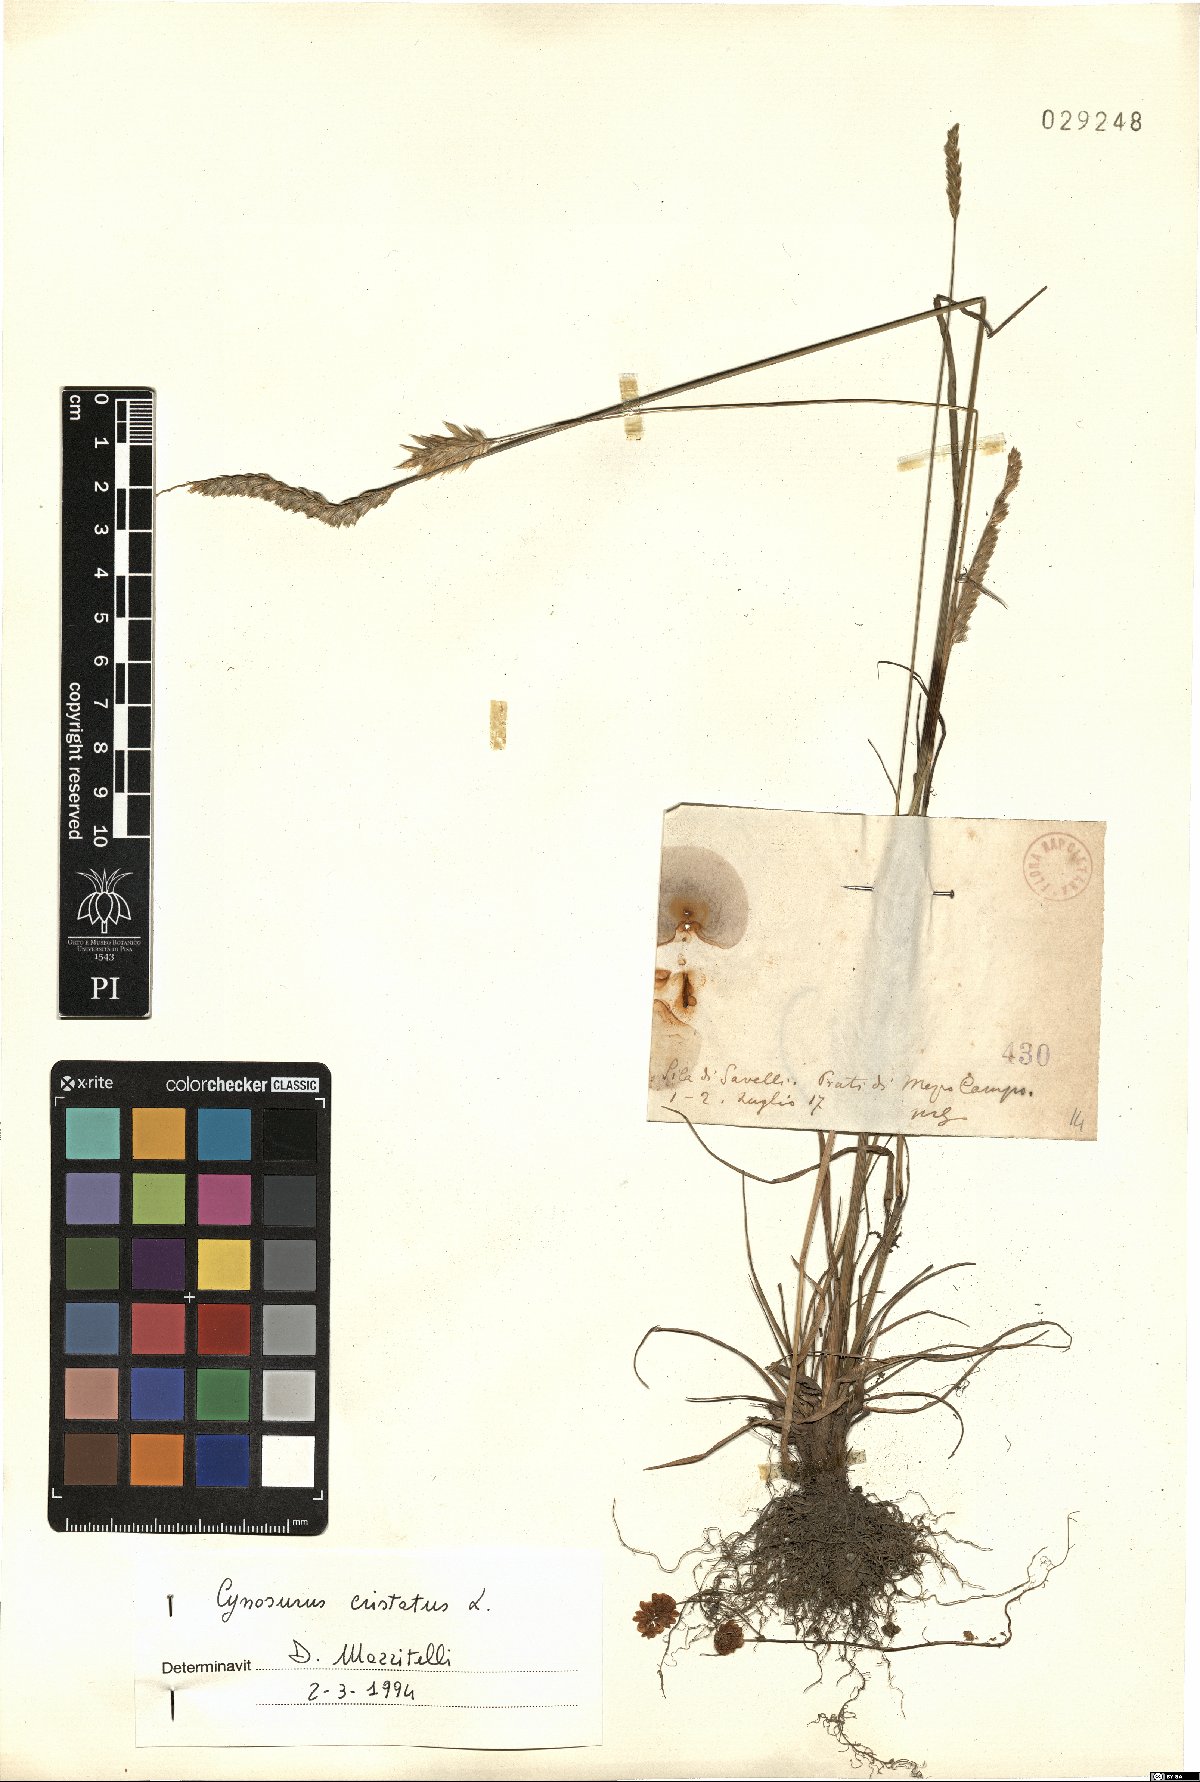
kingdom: Plantae
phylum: Tracheophyta
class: Liliopsida
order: Poales
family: Poaceae
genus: Cynosurus
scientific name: Cynosurus cristatus
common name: Crested dog's-tail
